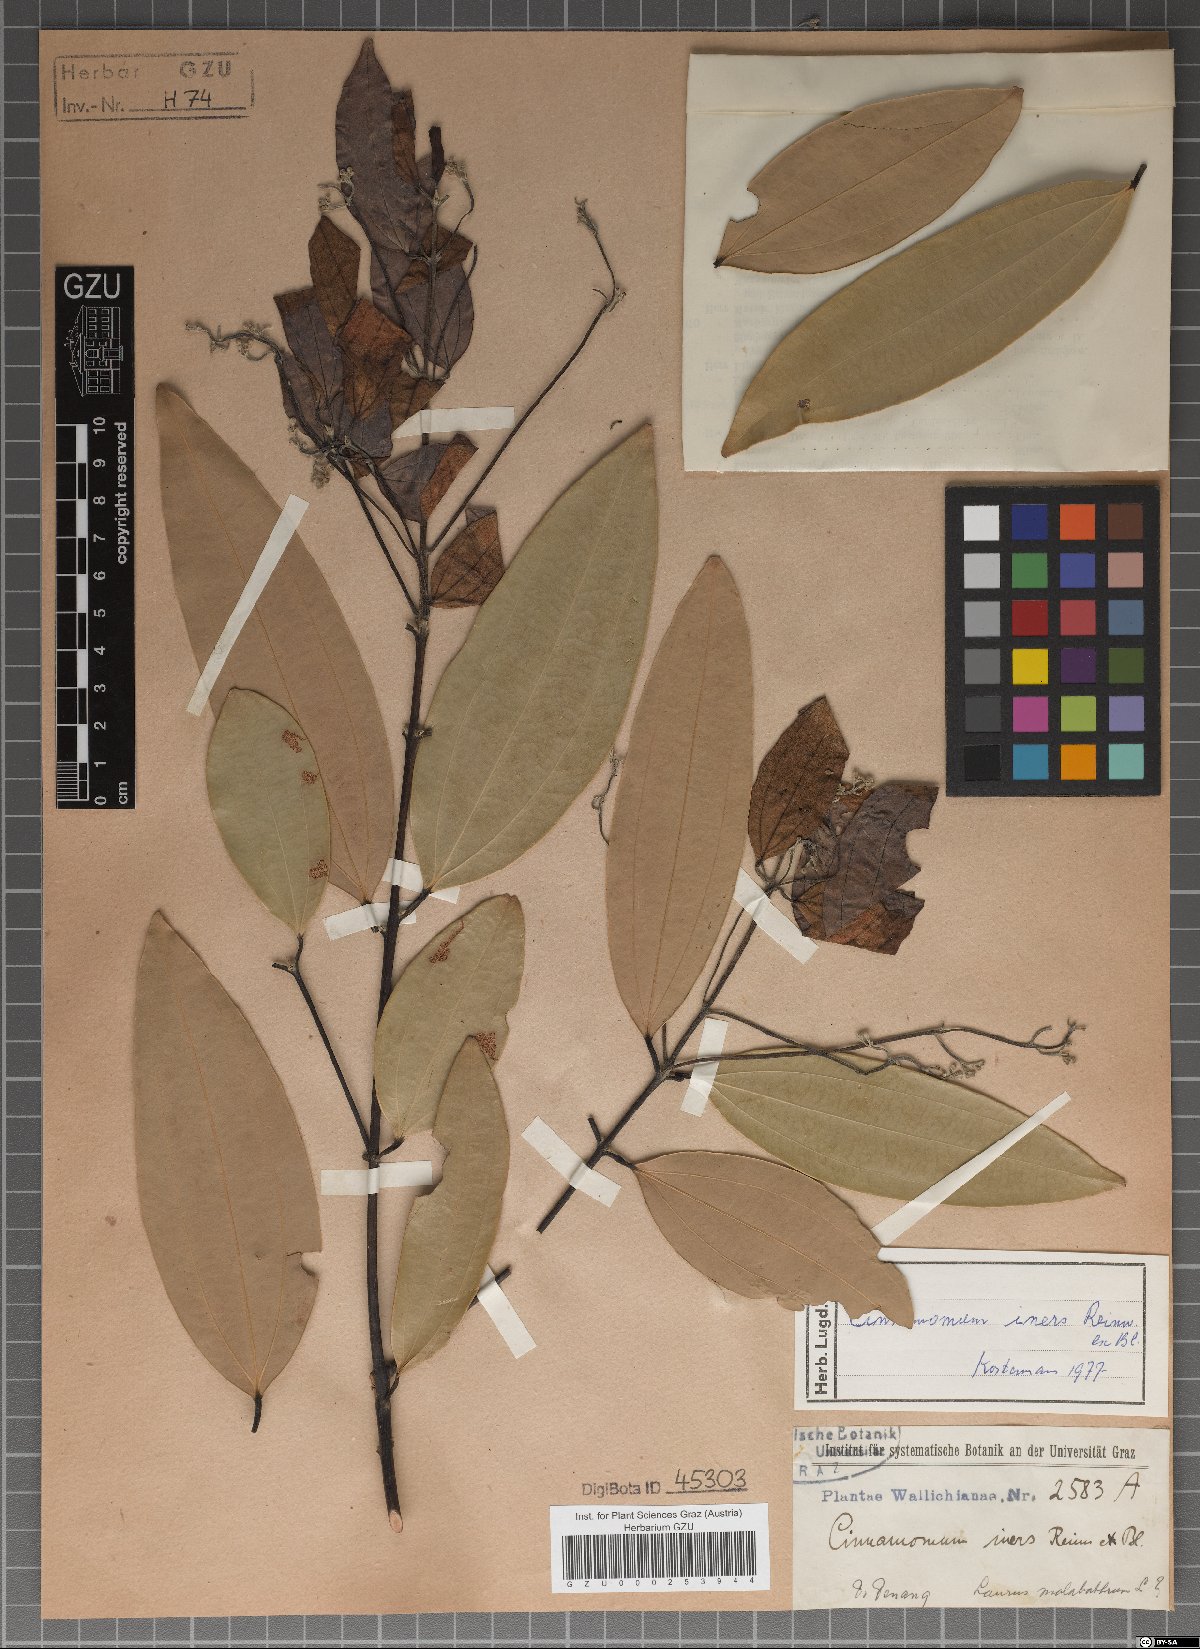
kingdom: Plantae
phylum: Tracheophyta
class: Magnoliopsida
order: Laurales
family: Lauraceae
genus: Cinnamomum
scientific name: Cinnamomum verum
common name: Cinnamon
